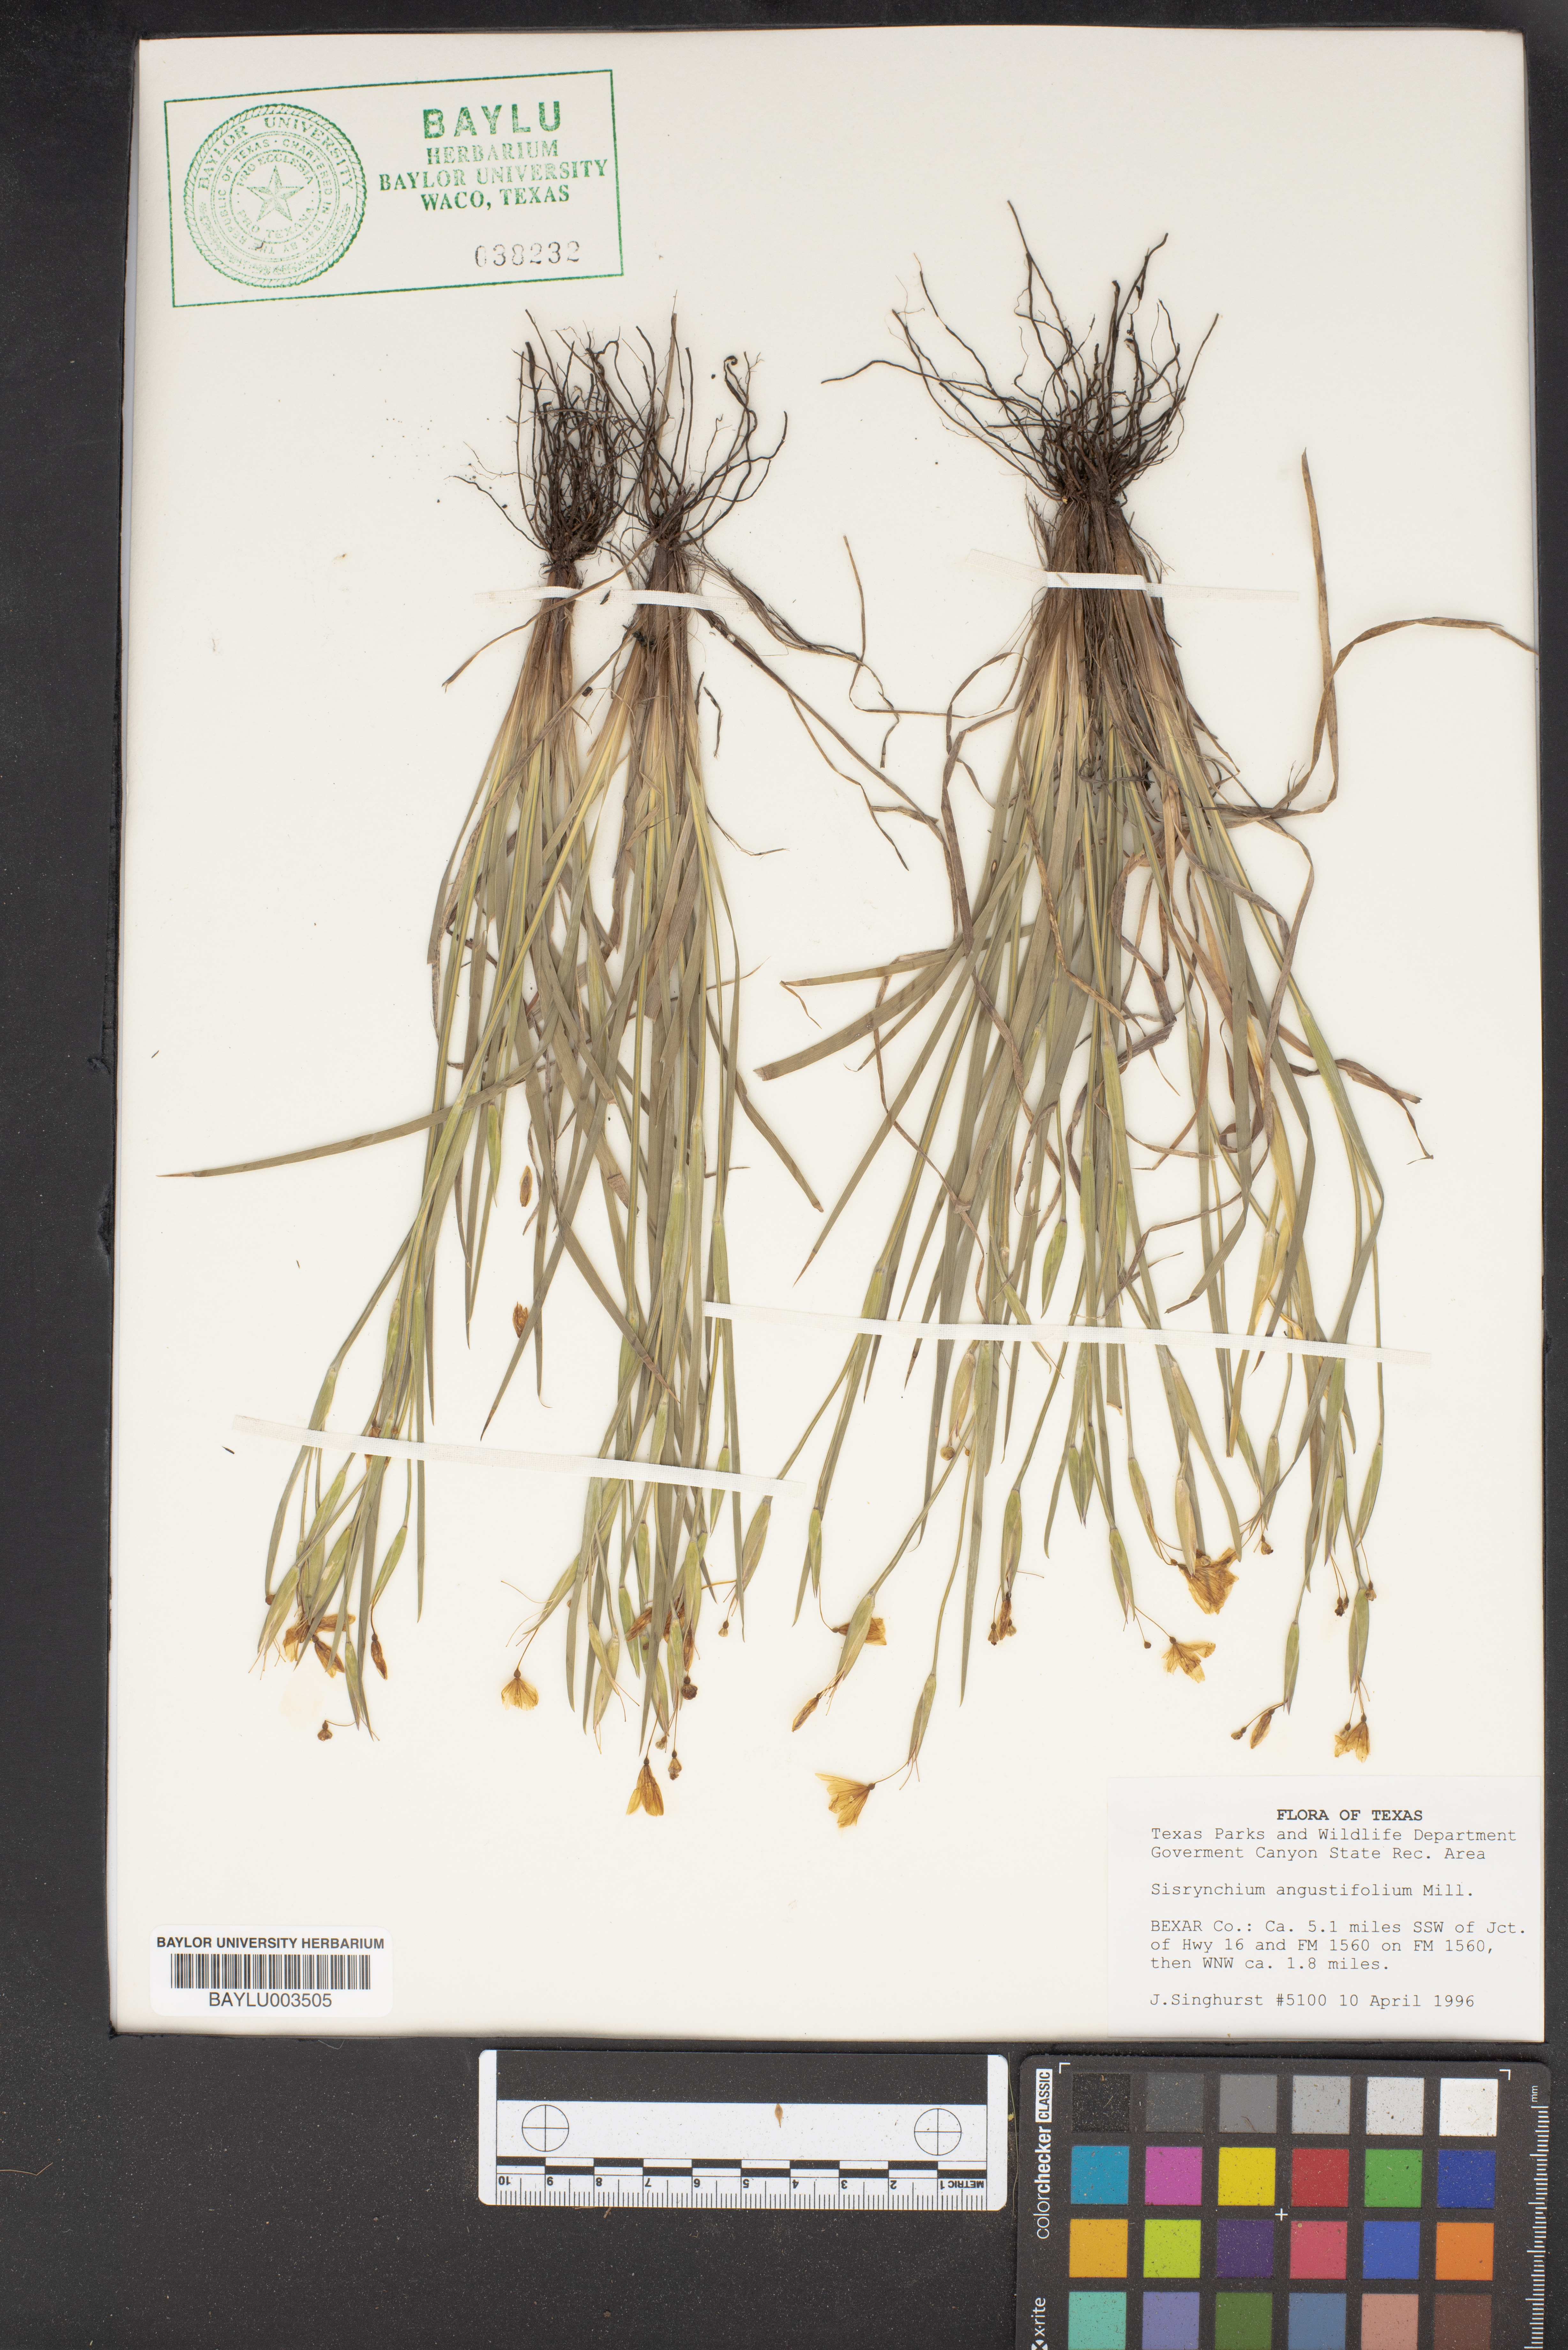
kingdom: Plantae
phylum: Tracheophyta
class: Liliopsida
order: Asparagales
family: Iridaceae
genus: Sisyrinchium
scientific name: Sisyrinchium angustifolium
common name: Narrow-leaf blue-eyed-grass
